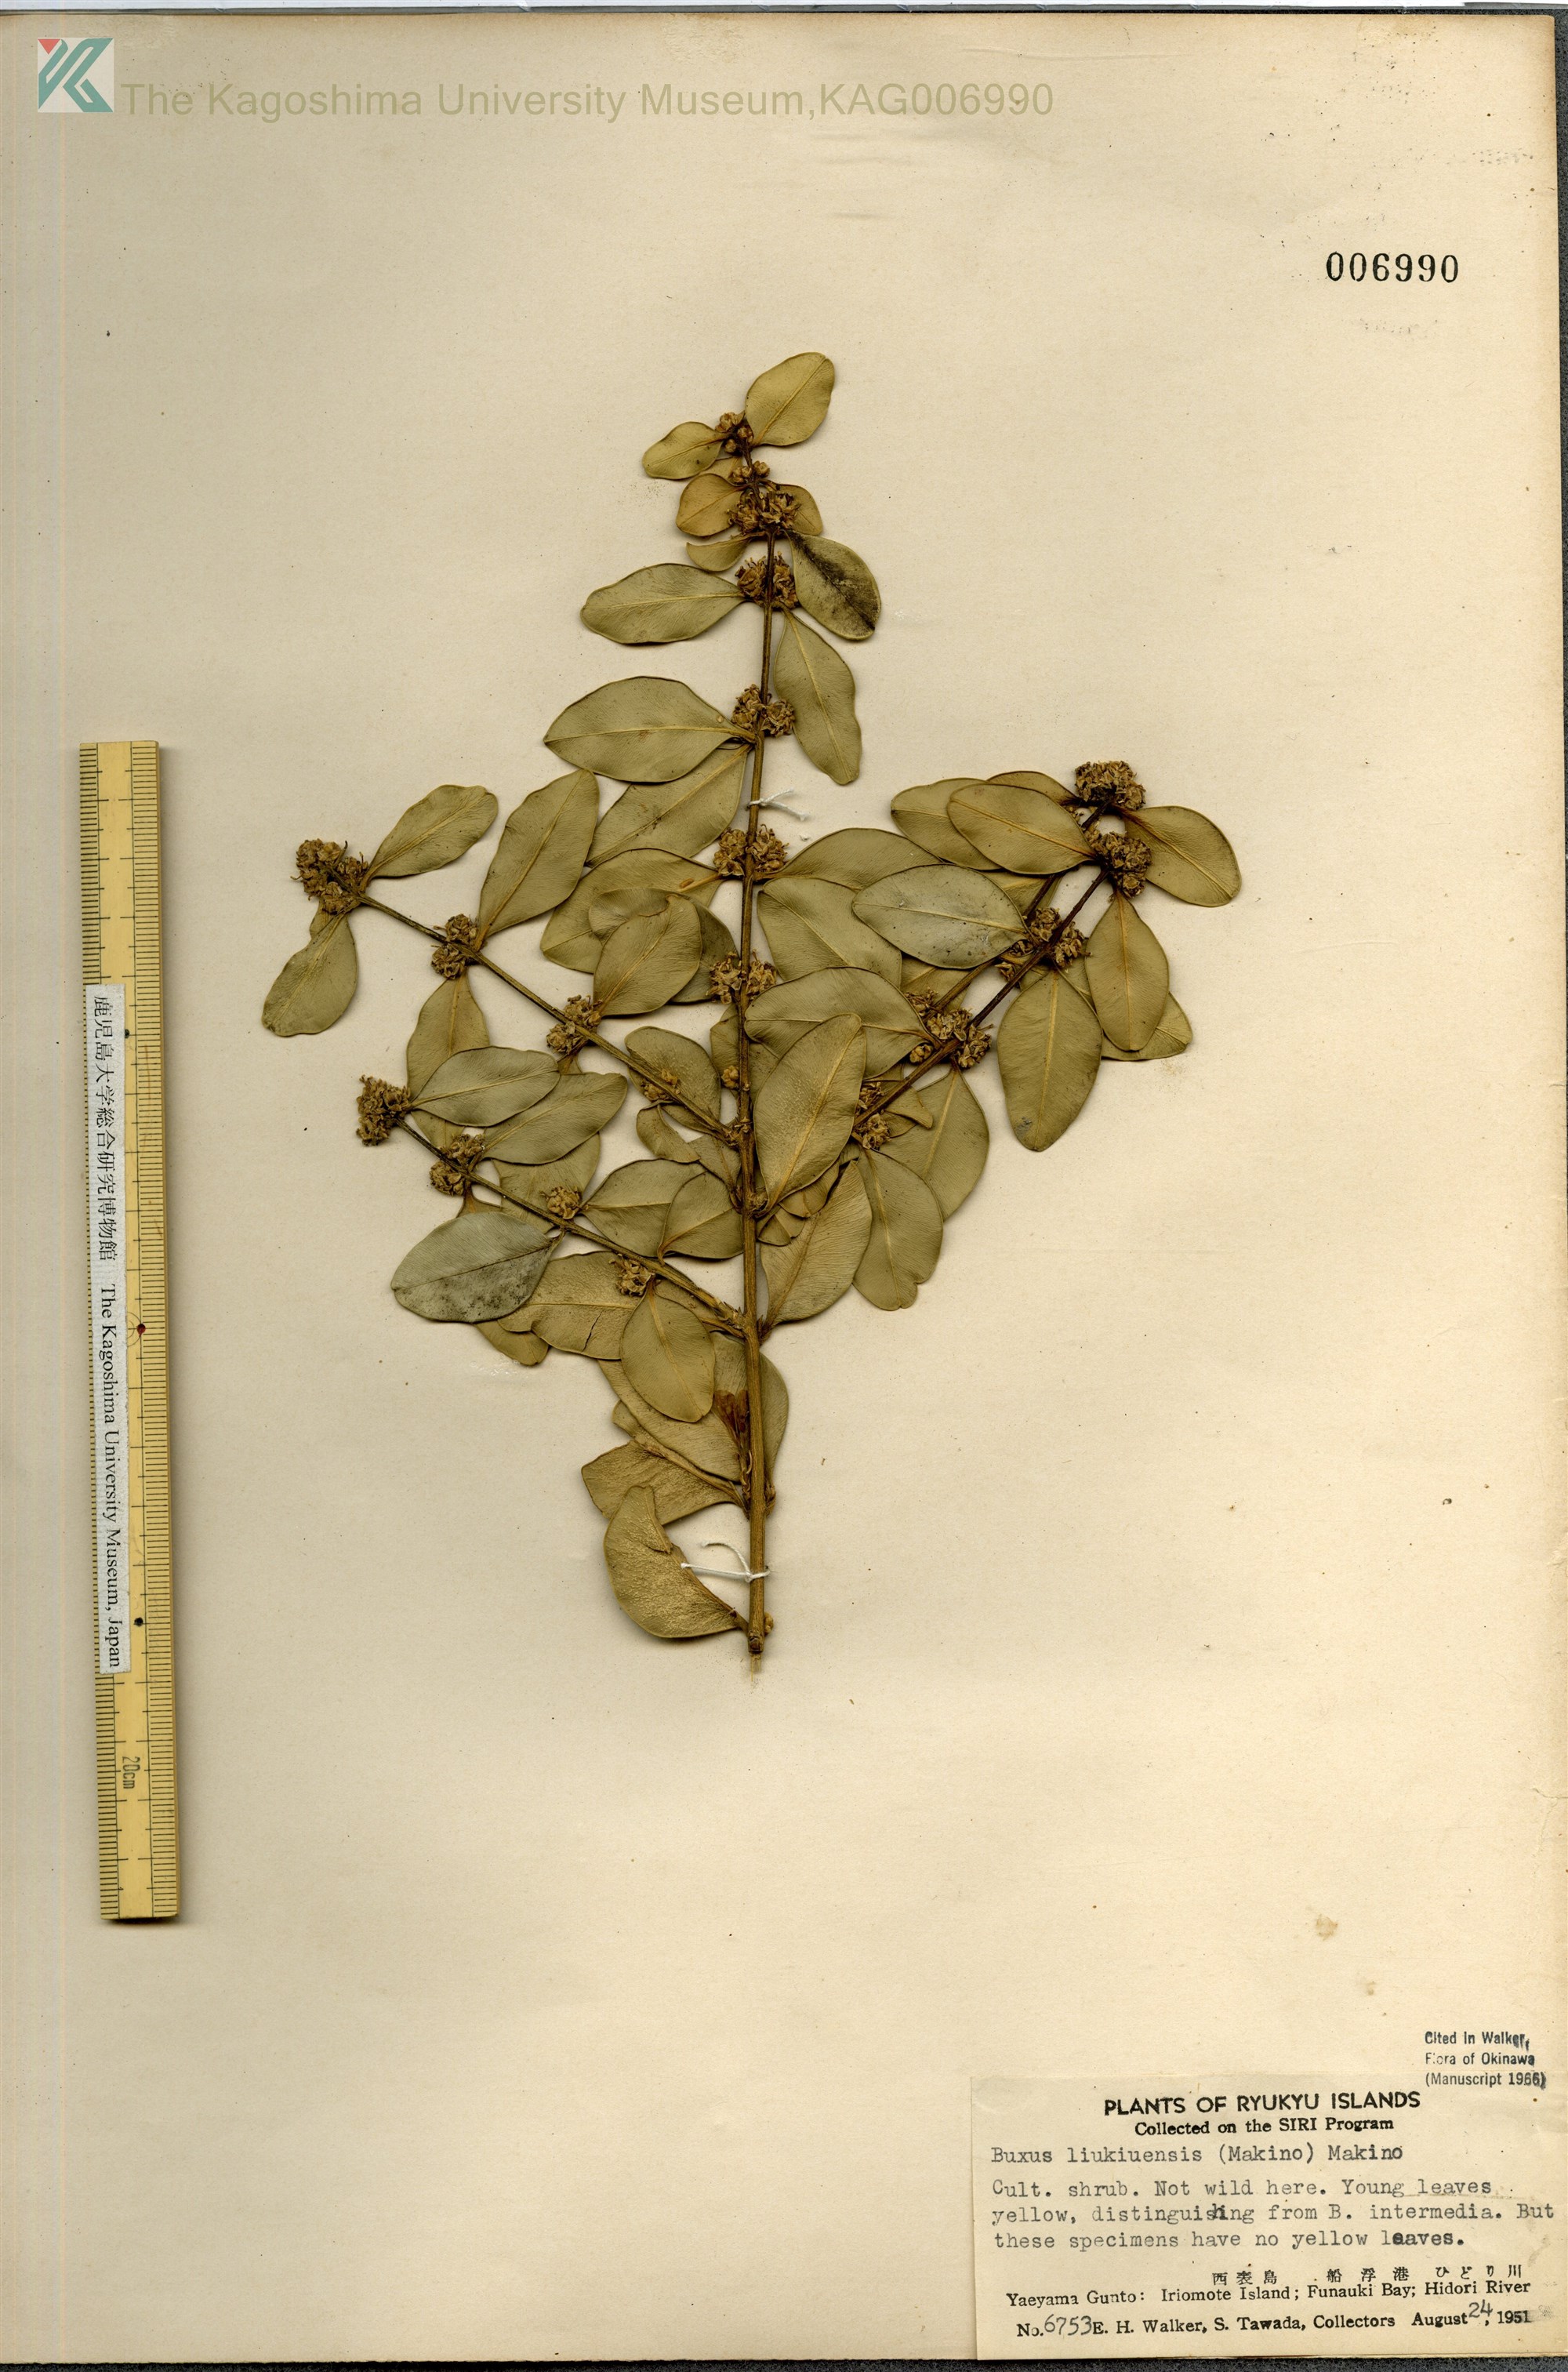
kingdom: Plantae
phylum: Tracheophyta
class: Magnoliopsida
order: Buxales
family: Buxaceae
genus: Buxus
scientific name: Buxus liukiuensis
